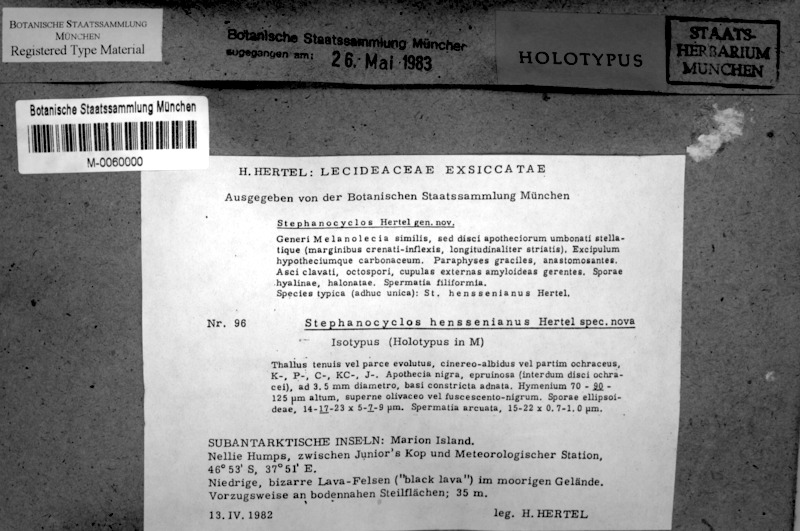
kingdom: Fungi
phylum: Ascomycota
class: Lecanoromycetes
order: Lecideales
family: Lecideaceae
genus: Stephanocyclos
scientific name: Stephanocyclos henssenianus
